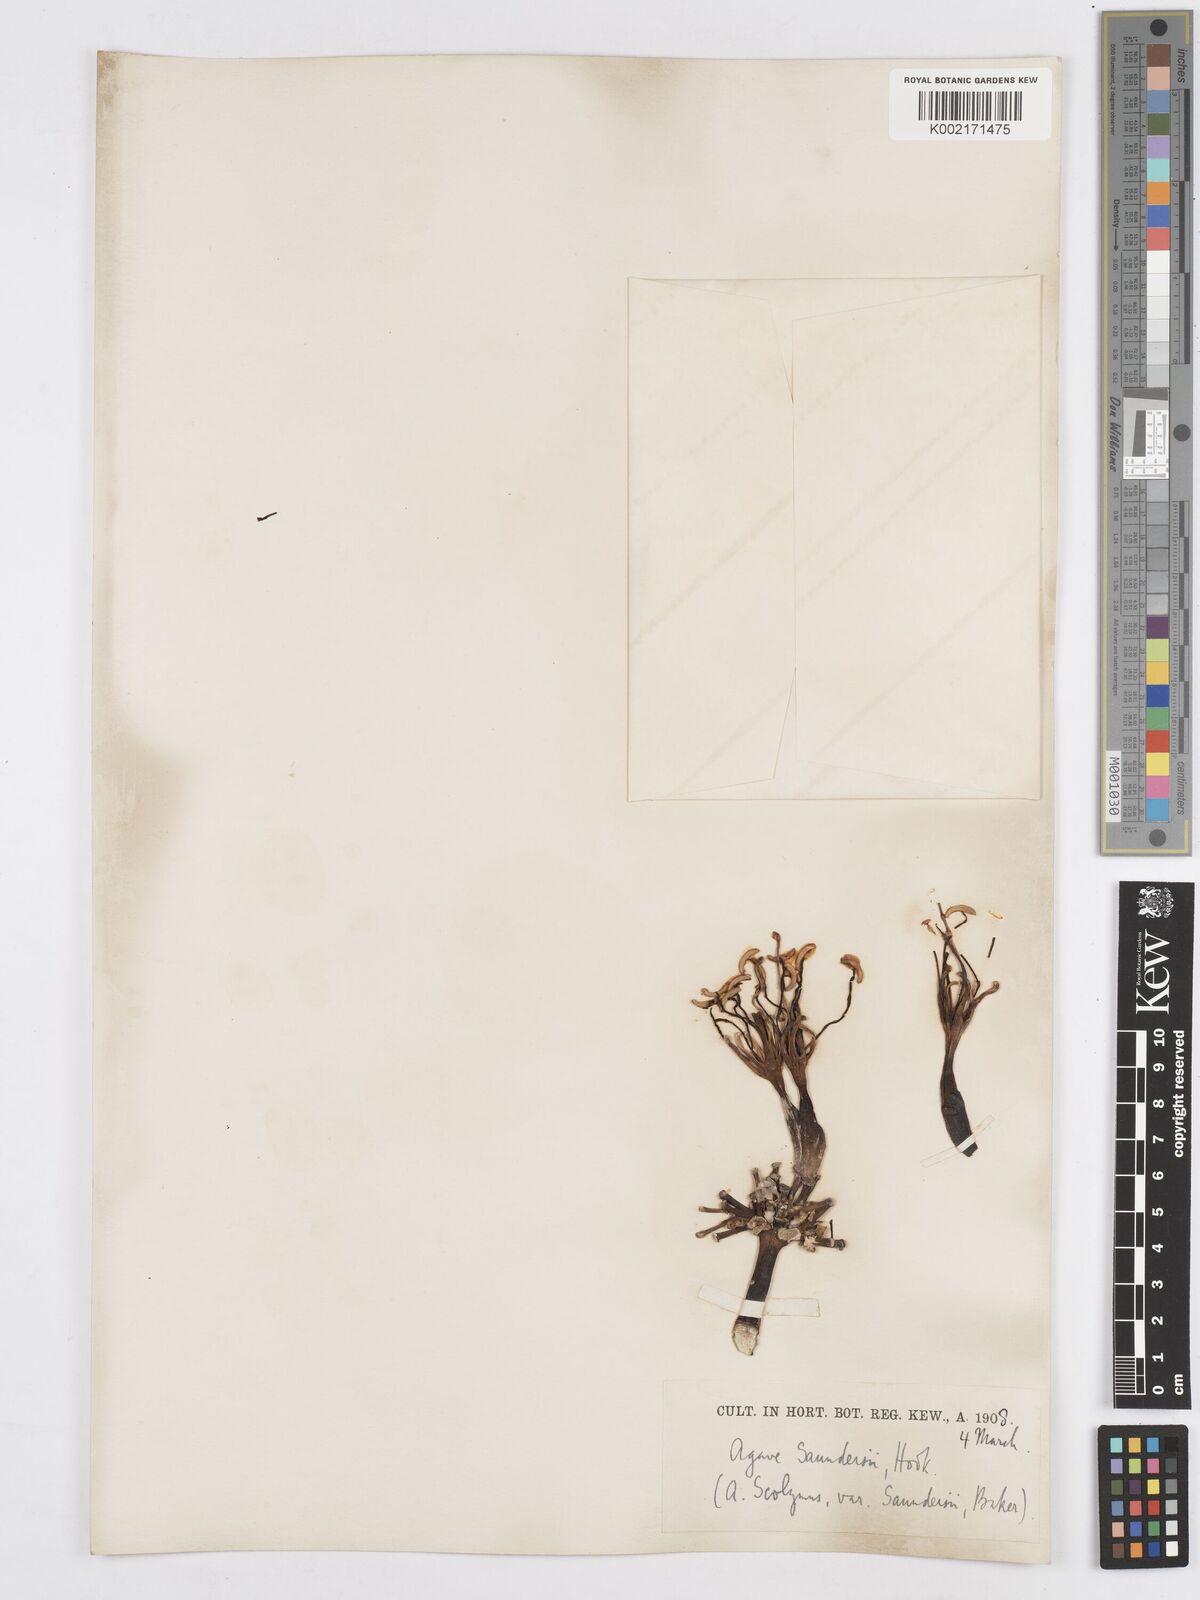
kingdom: Plantae
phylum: Tracheophyta
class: Liliopsida
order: Asparagales
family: Asparagaceae
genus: Agave
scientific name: Agave potatorum
